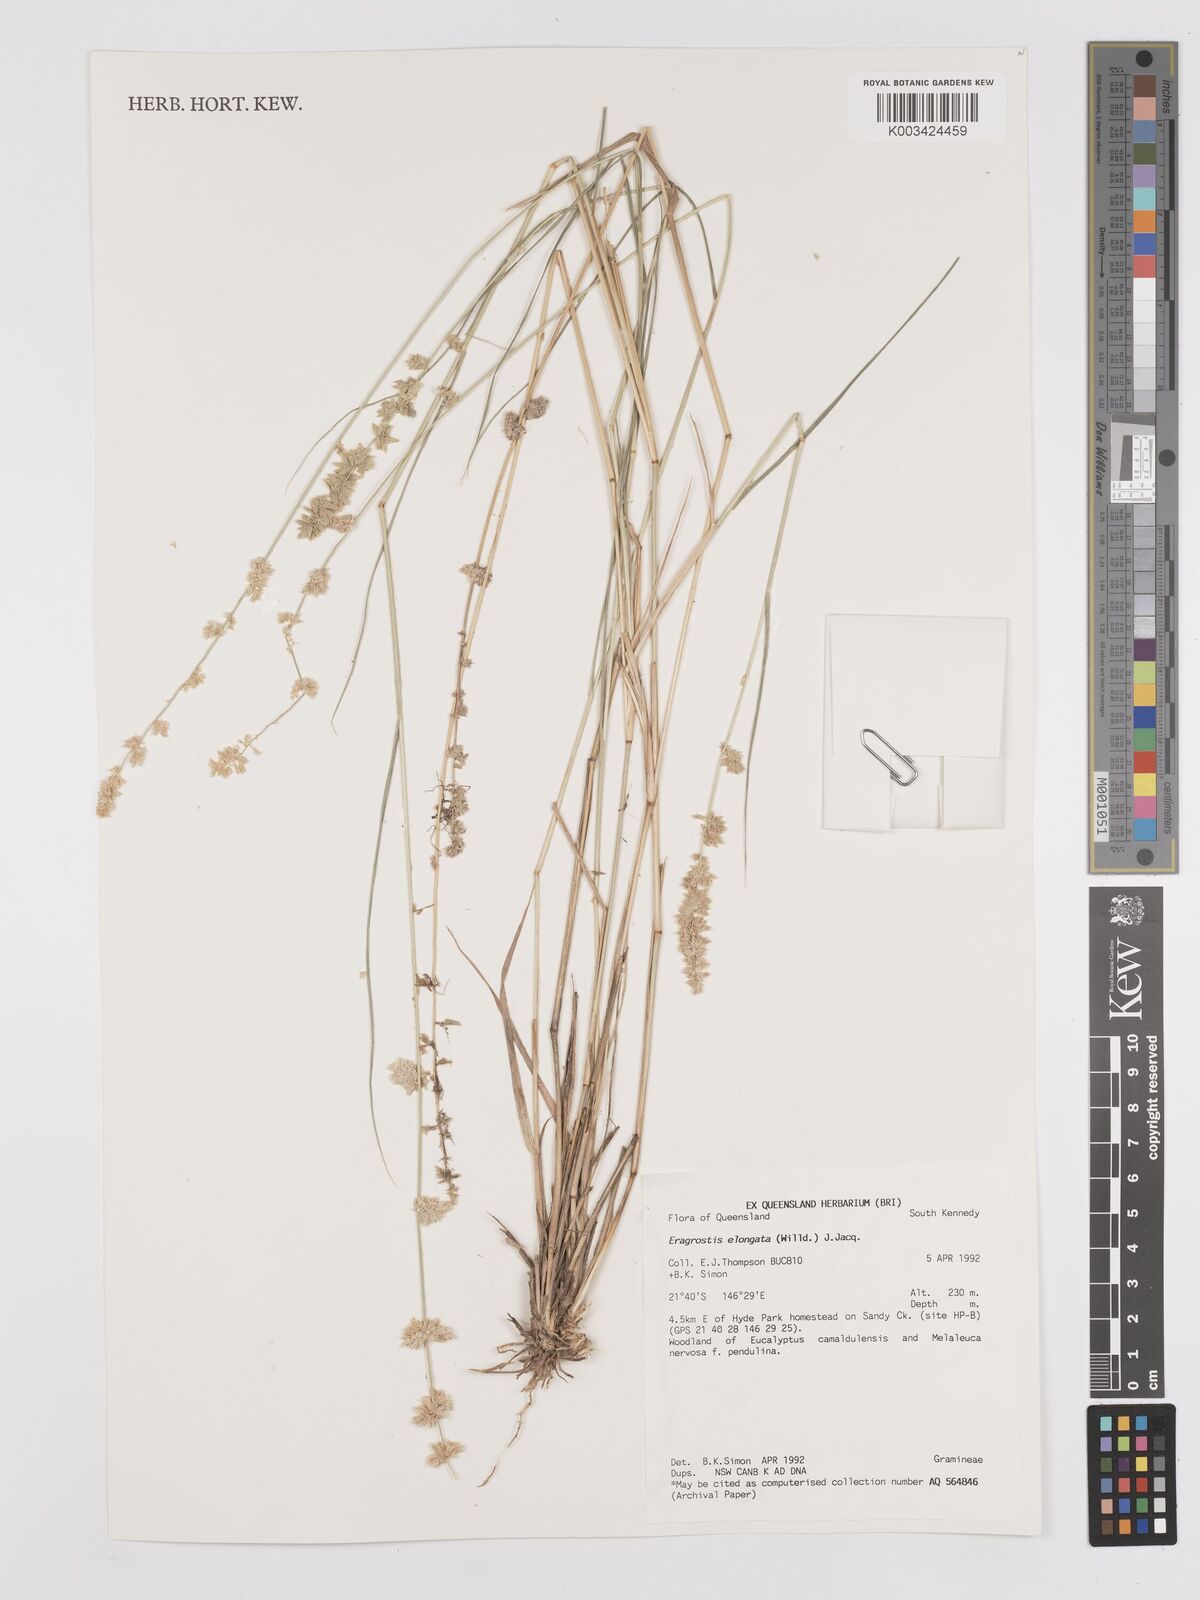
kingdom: Plantae
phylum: Tracheophyta
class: Liliopsida
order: Poales
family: Poaceae
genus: Eragrostis
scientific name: Eragrostis elongata
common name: Long lovegrass
